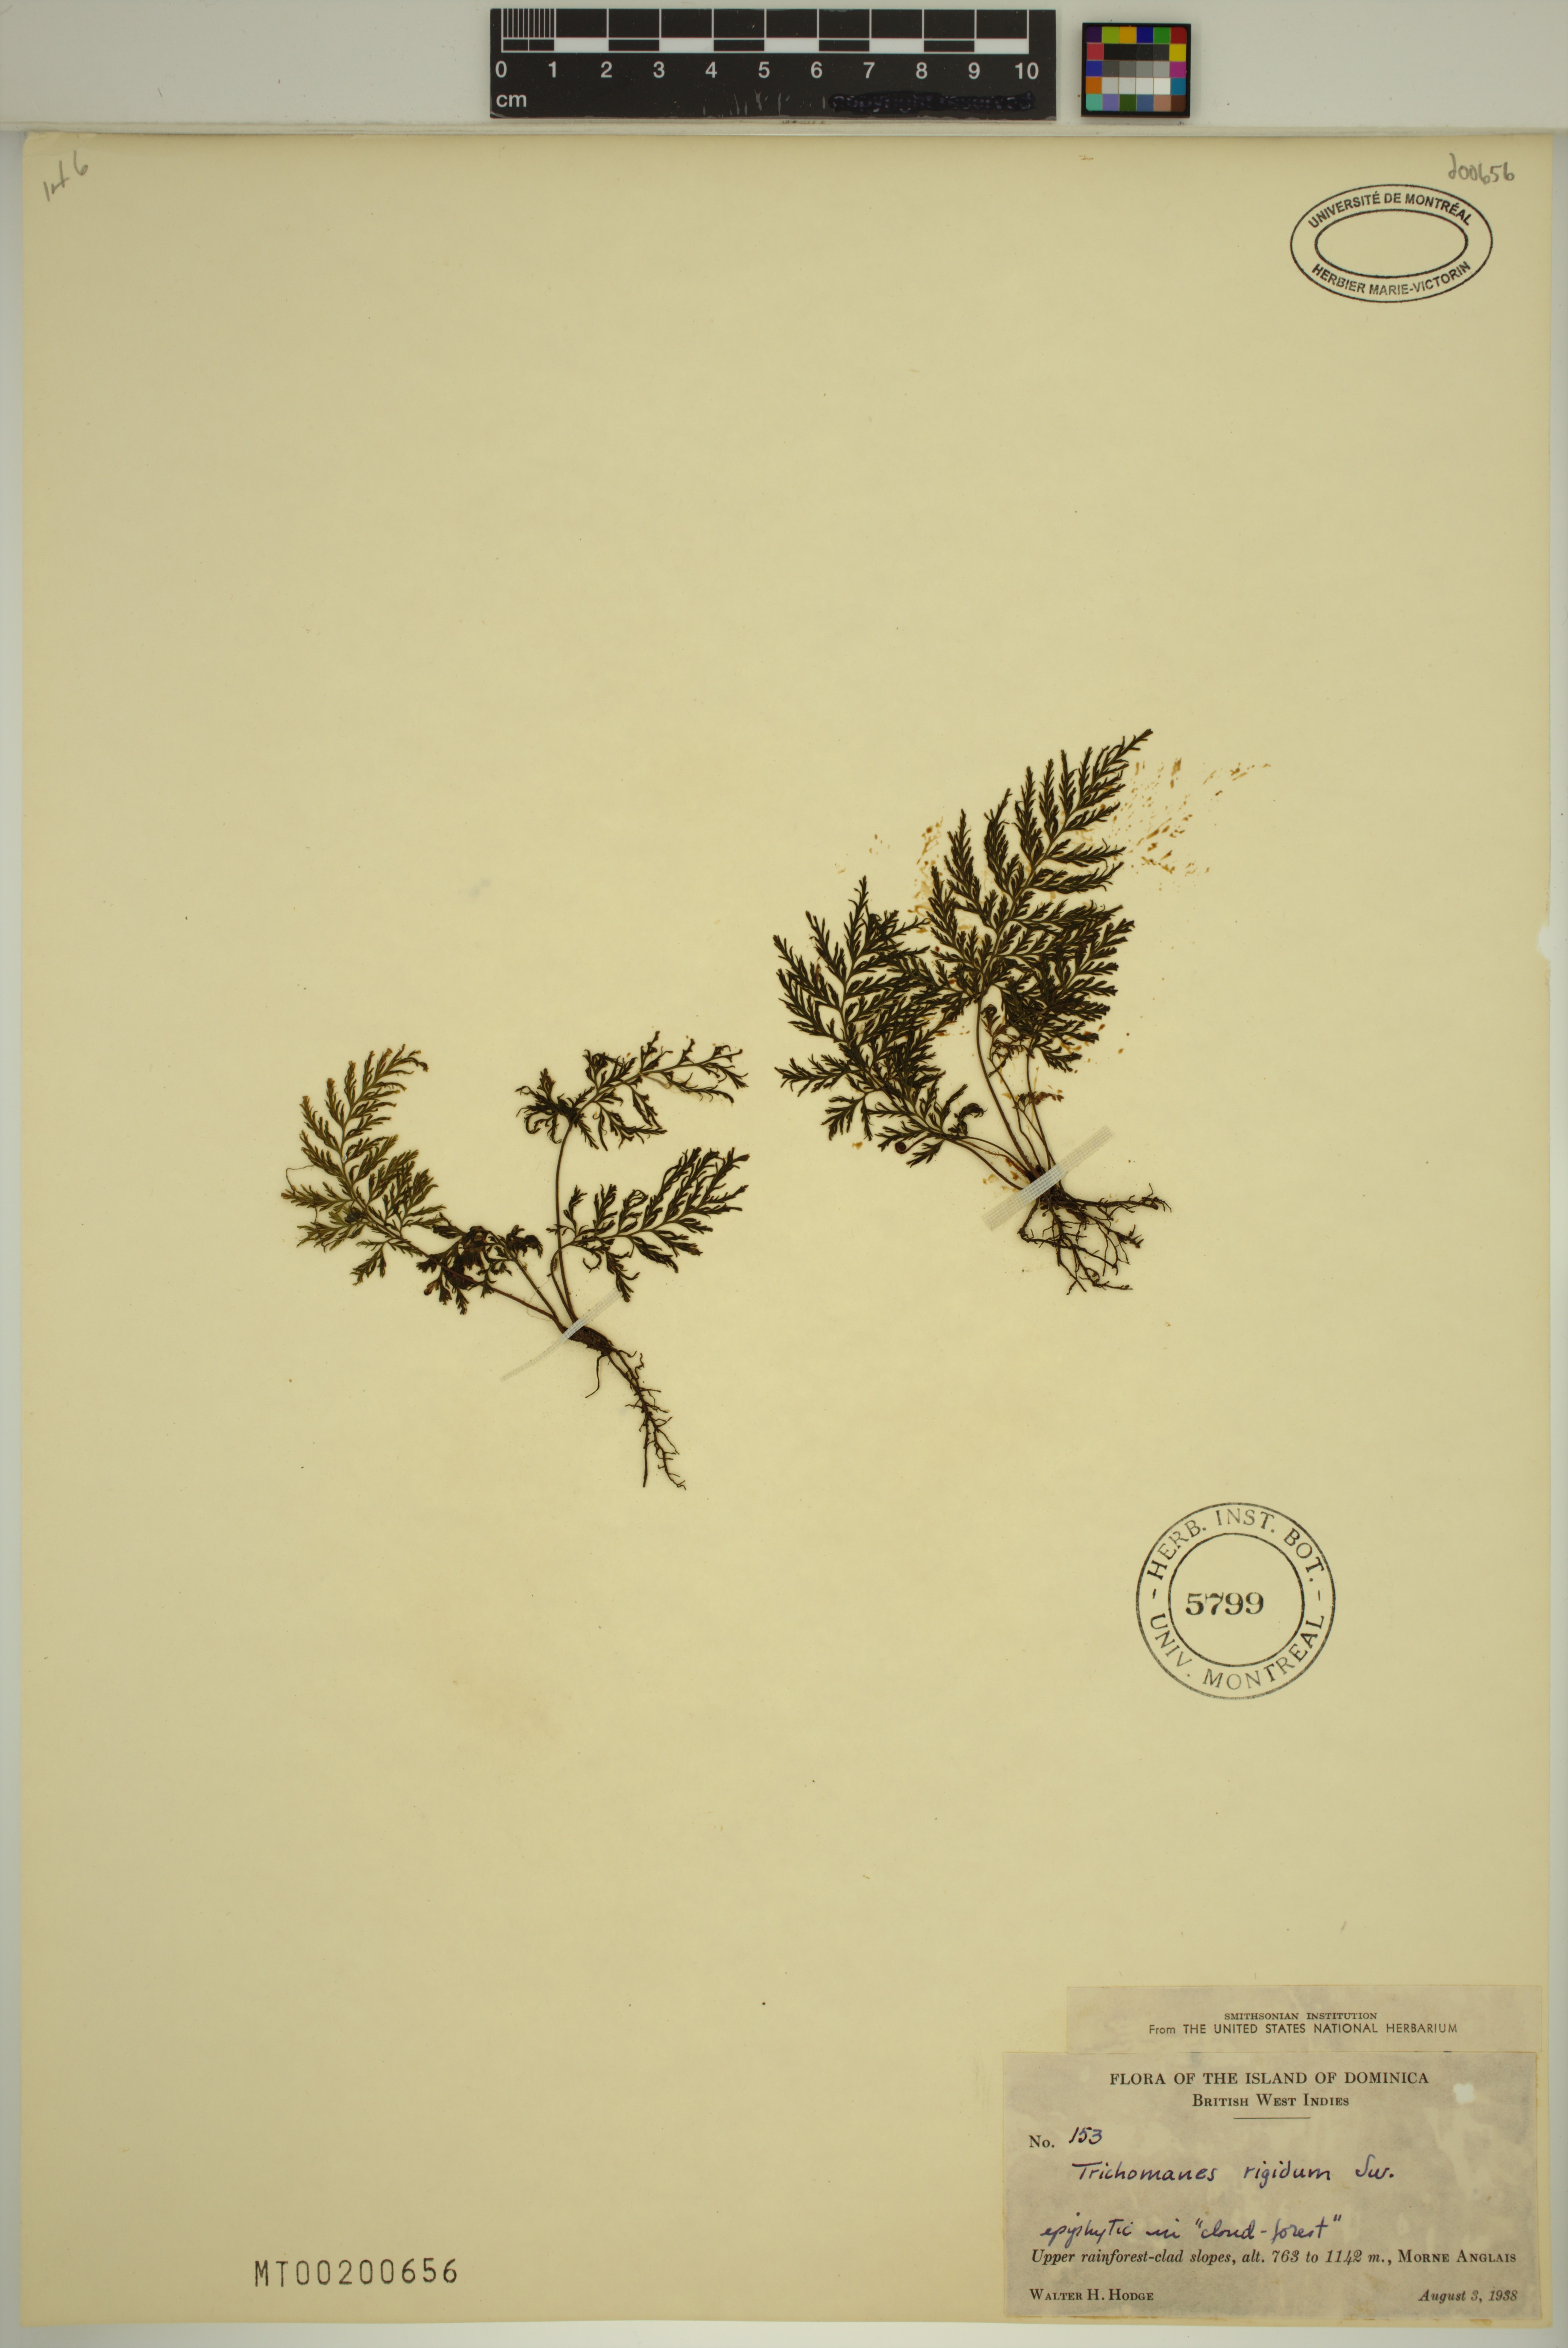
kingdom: Plantae
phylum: Tracheophyta
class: Polypodiopsida
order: Hymenophyllales
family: Hymenophyllaceae
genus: Abrodictyum
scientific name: Abrodictyum rigidum
